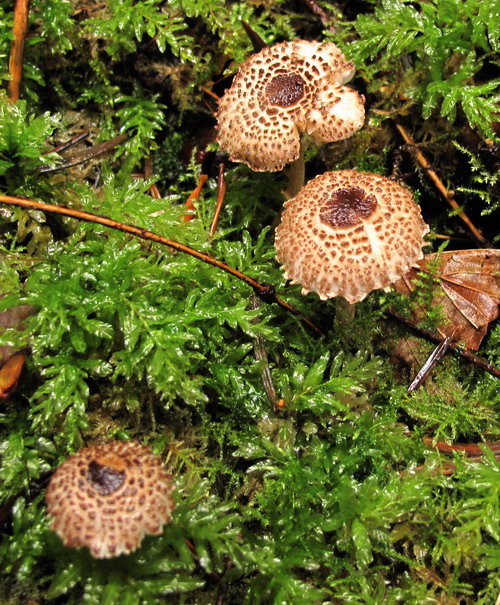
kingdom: Fungi
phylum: Basidiomycota
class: Agaricomycetes
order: Agaricales
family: Agaricaceae
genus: Lepiota
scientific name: Lepiota felina
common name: sortskællet parasolhat
